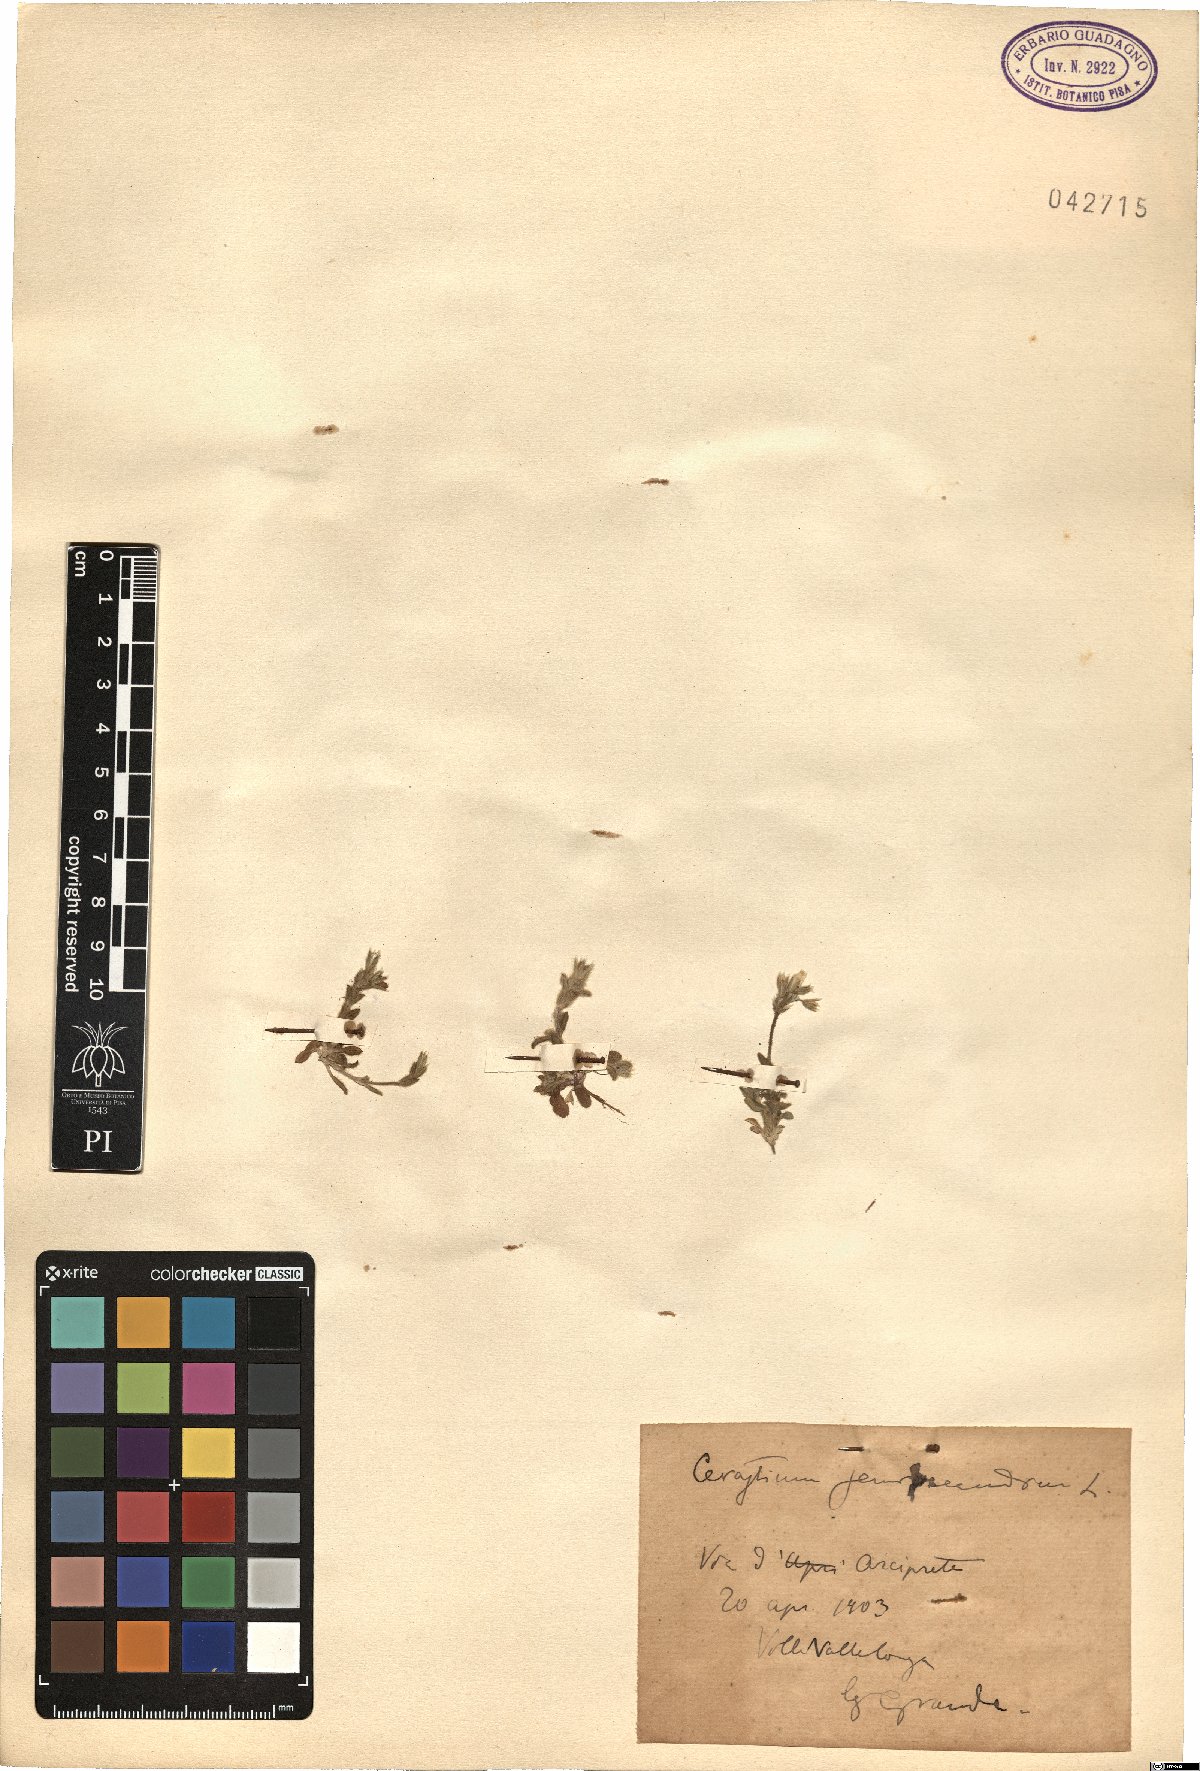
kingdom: Plantae
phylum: Tracheophyta
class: Magnoliopsida
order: Caryophyllales
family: Caryophyllaceae
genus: Cerastium
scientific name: Cerastium semidecandrum
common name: Little mouse-ear
